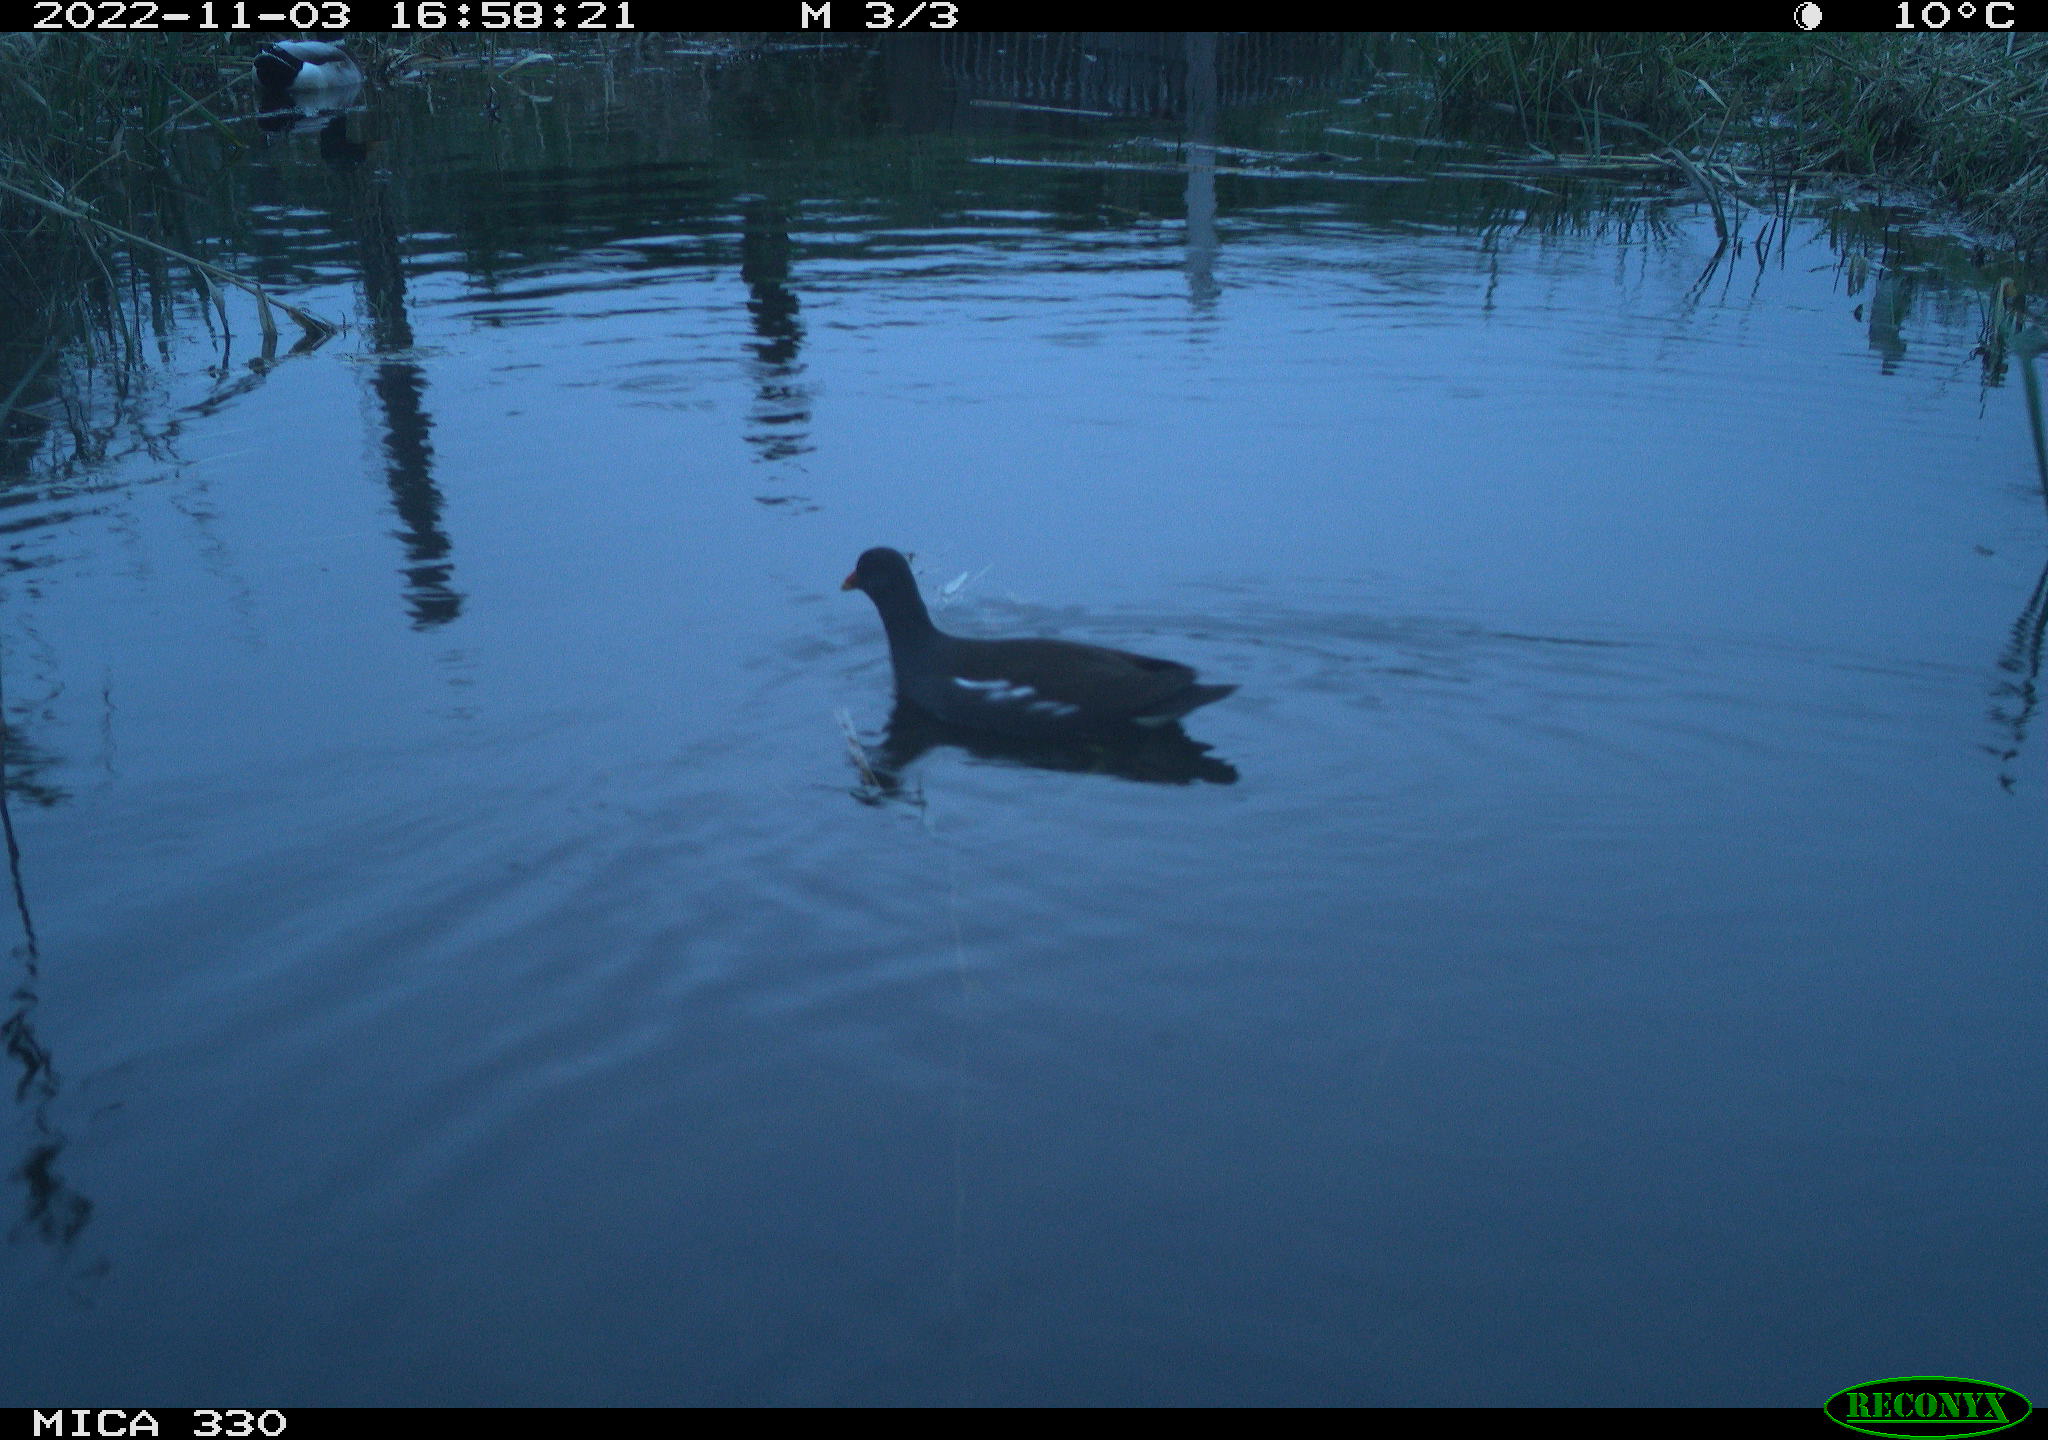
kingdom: Animalia
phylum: Chordata
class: Aves
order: Gruiformes
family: Rallidae
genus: Gallinula
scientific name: Gallinula chloropus
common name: Common moorhen
